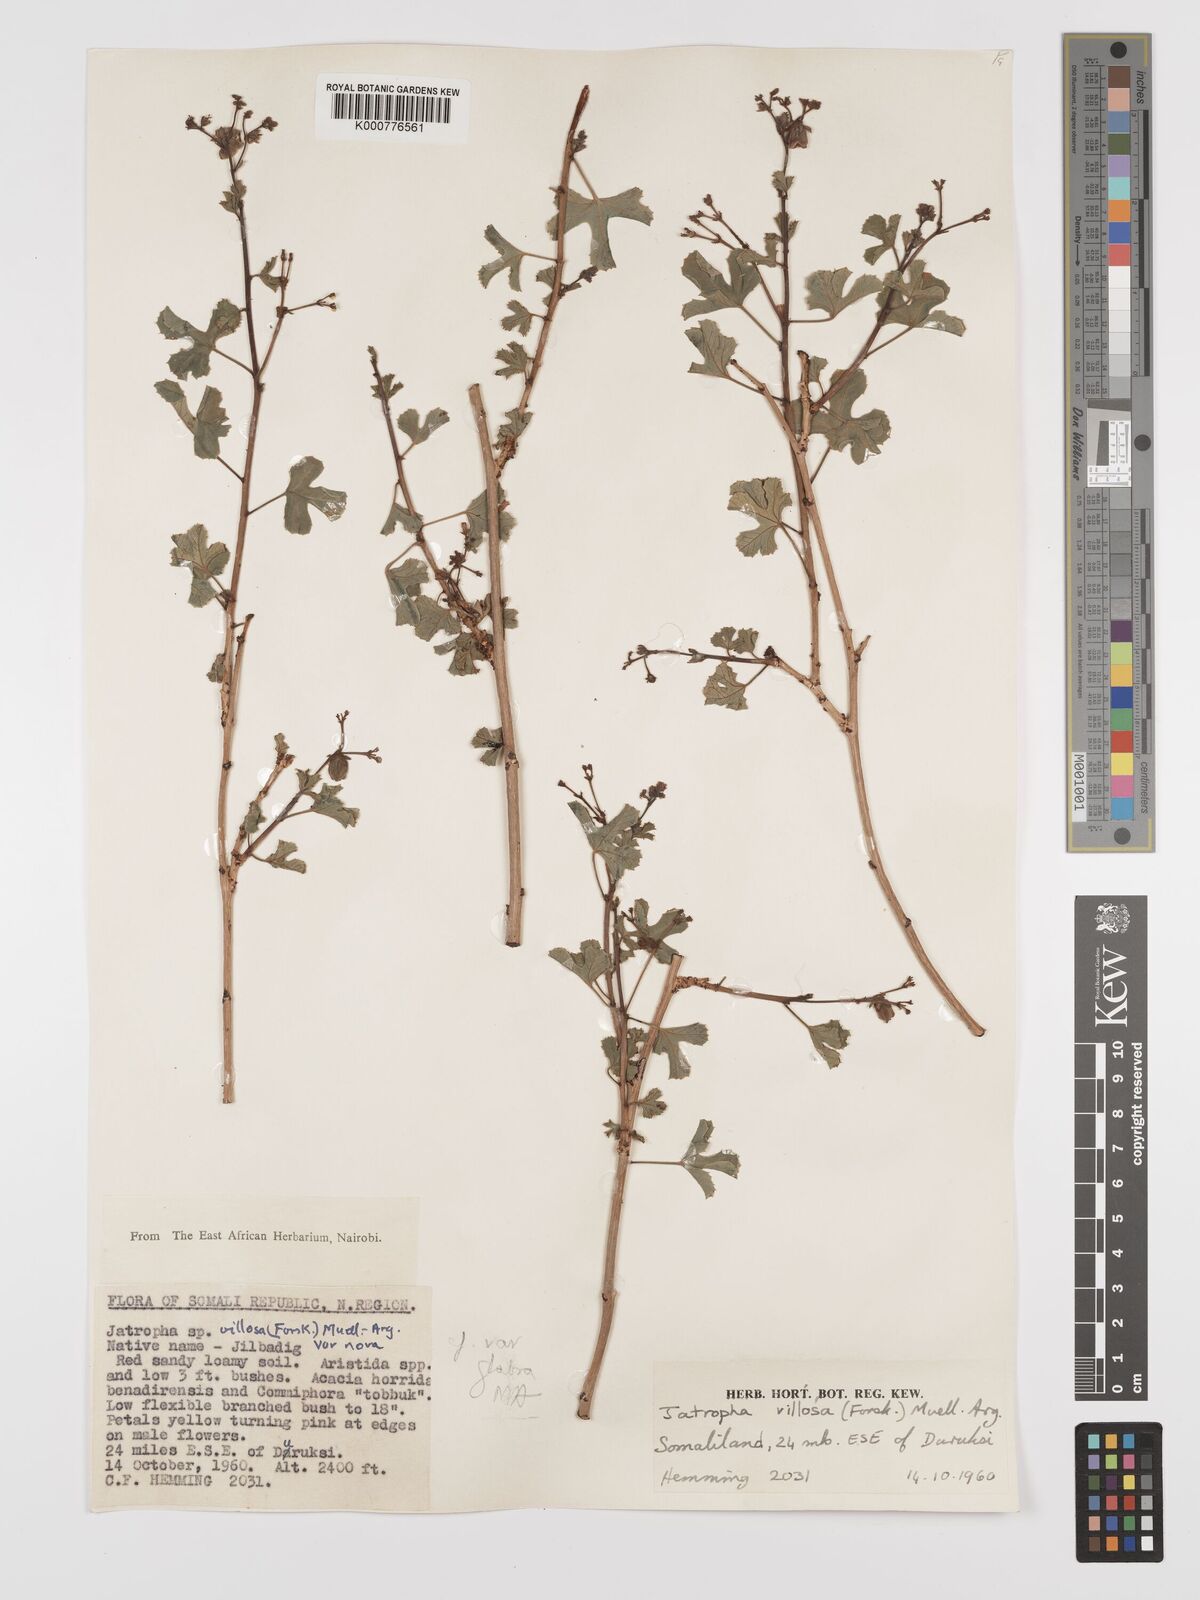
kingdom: Plantae
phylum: Tracheophyta
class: Magnoliopsida
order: Malpighiales
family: Euphorbiaceae
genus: Jatropha
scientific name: Jatropha pelargoniifolia
